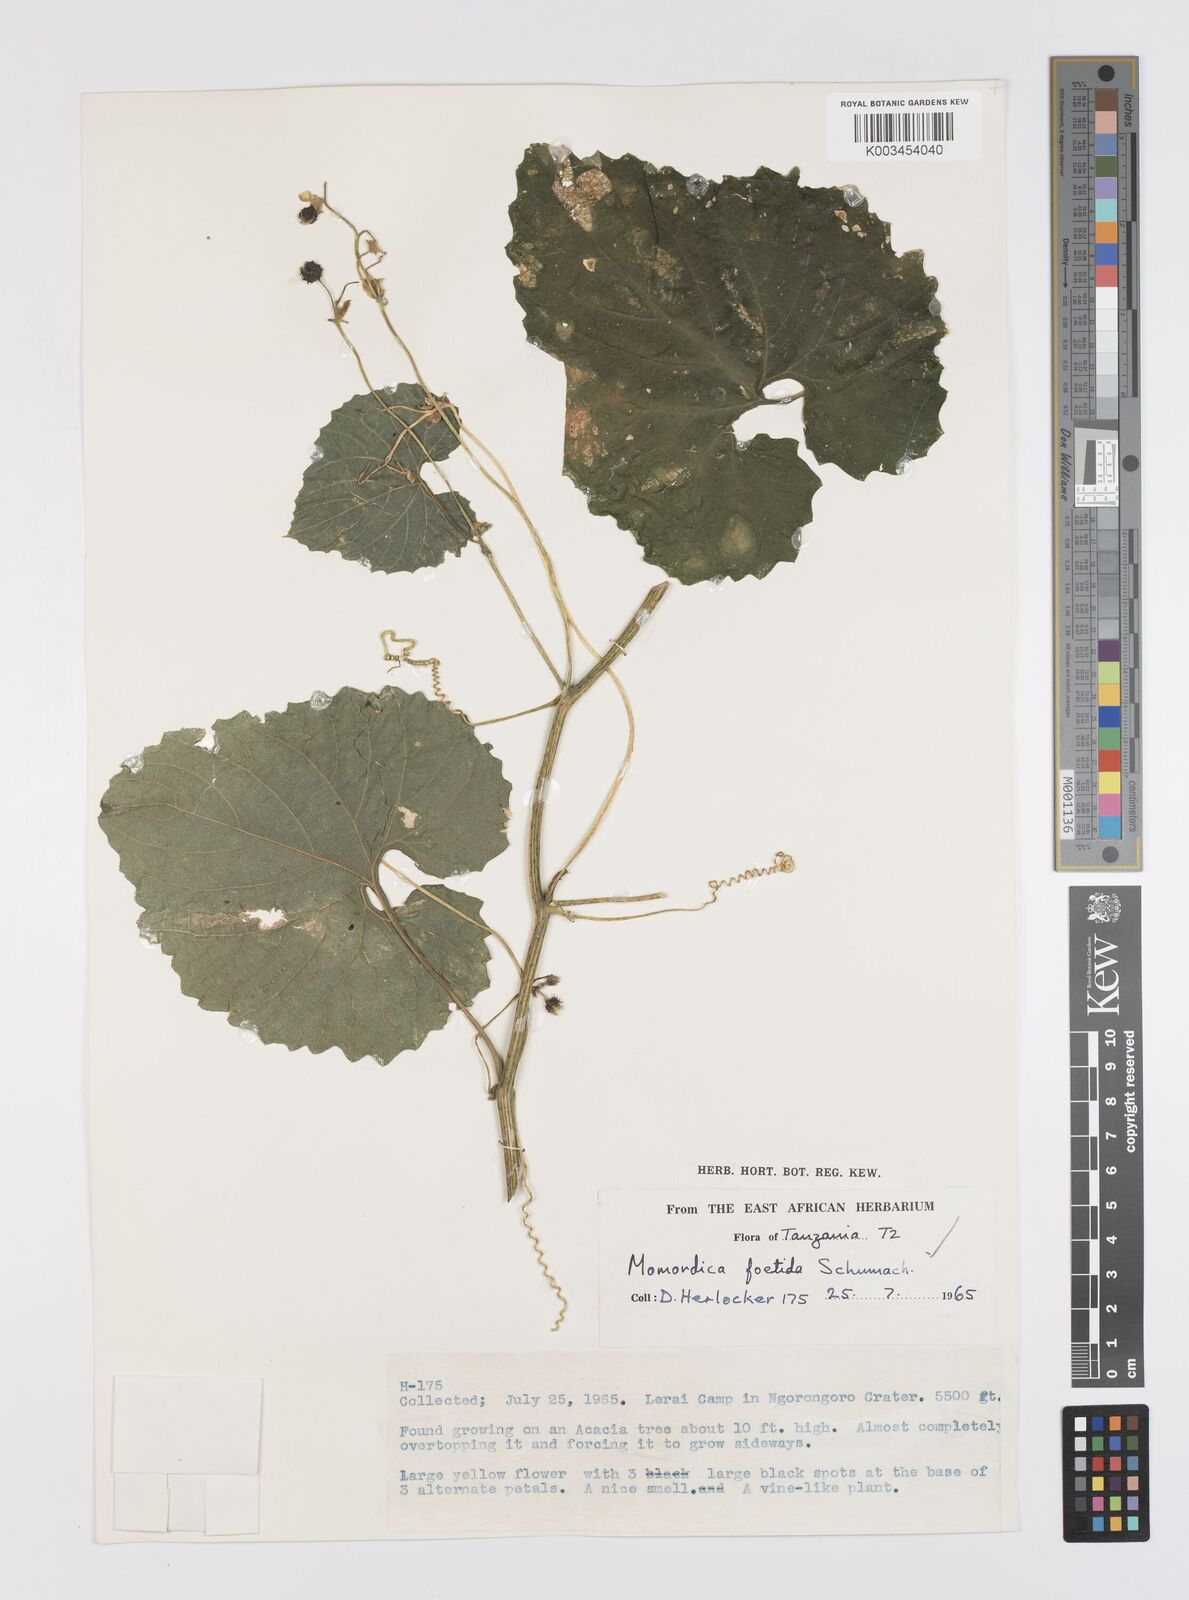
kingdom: Plantae
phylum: Tracheophyta
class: Magnoliopsida
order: Cucurbitales
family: Cucurbitaceae
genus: Momordica
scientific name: Momordica foetida
